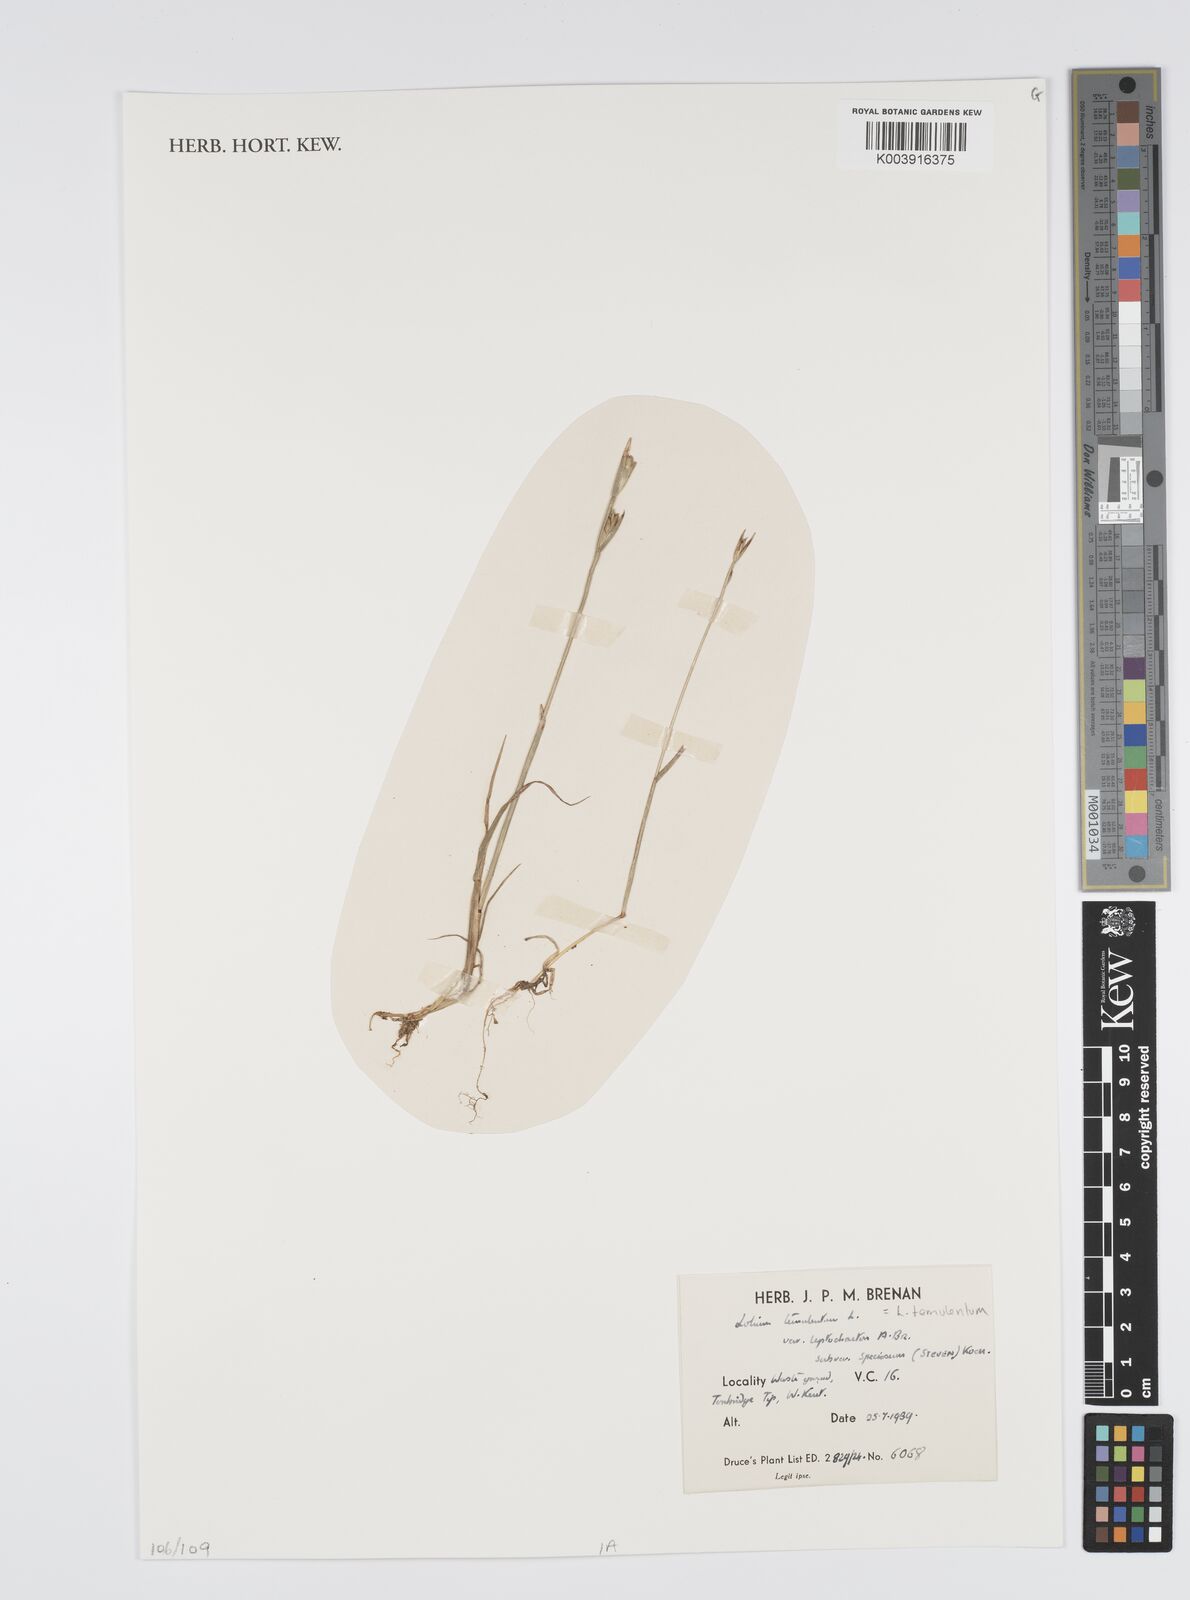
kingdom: Plantae
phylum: Tracheophyta
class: Liliopsida
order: Poales
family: Poaceae
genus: Lolium
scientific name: Lolium temulentum
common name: Darnel
